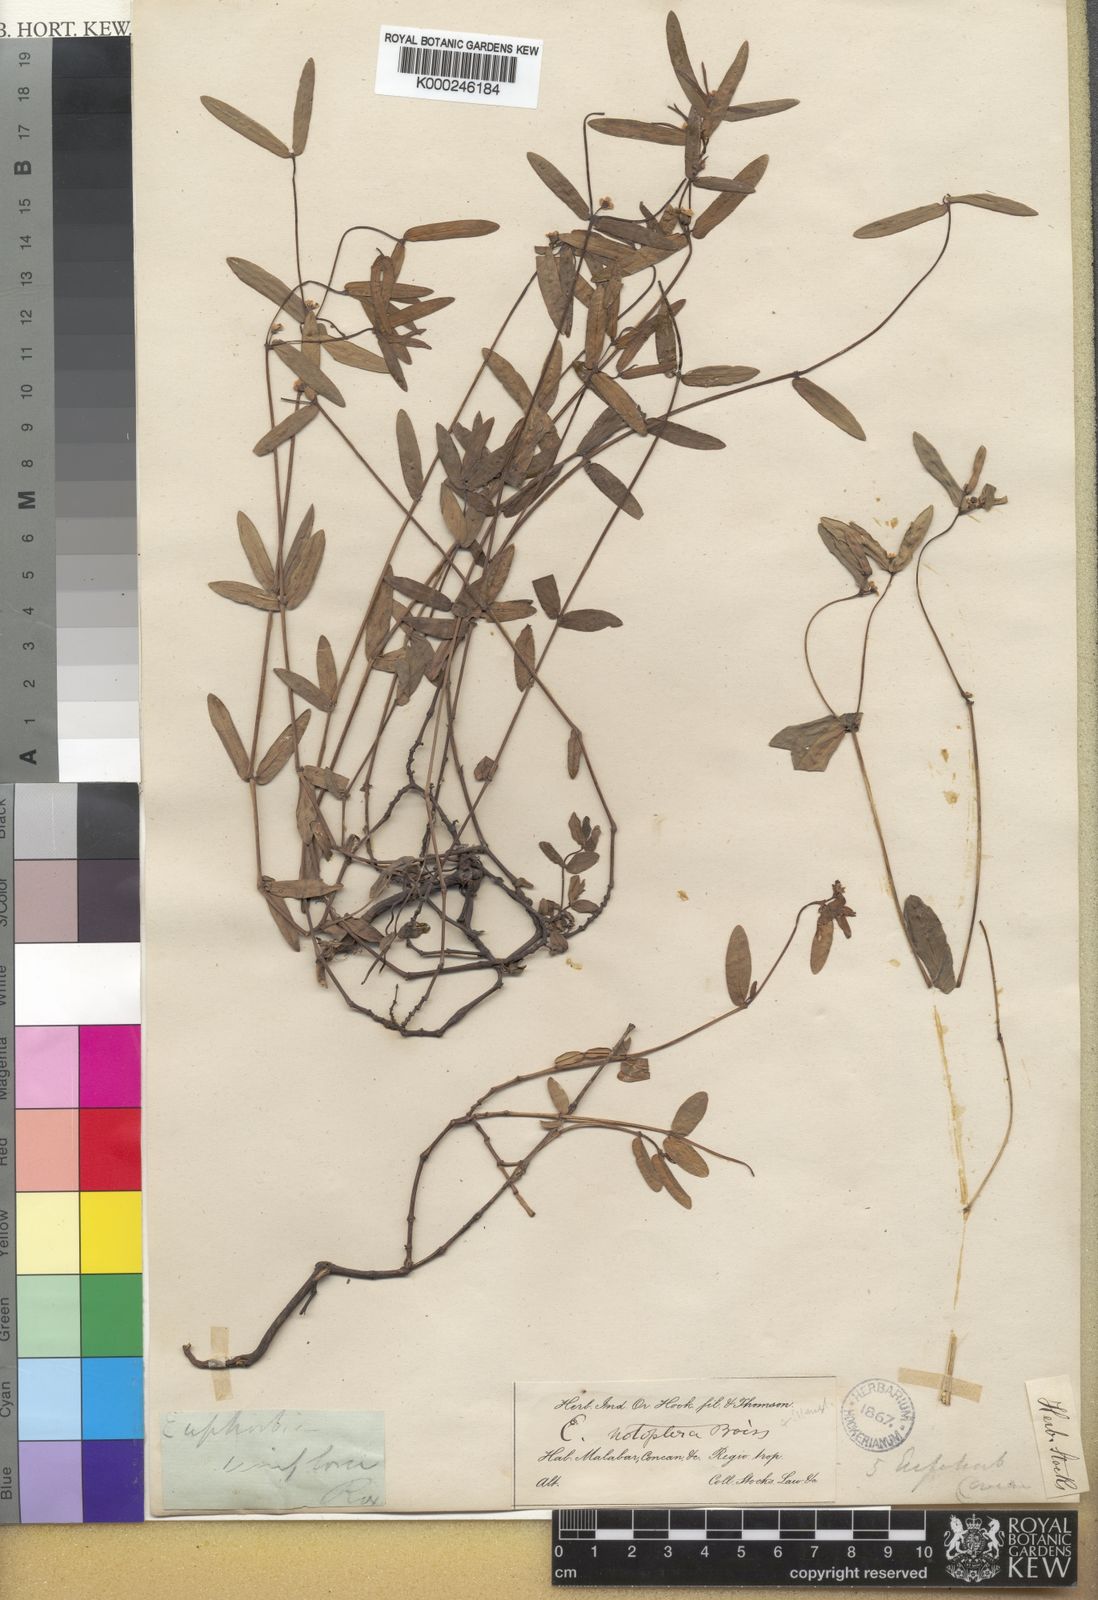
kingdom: Plantae
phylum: Tracheophyta
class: Magnoliopsida
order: Malpighiales
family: Euphorbiaceae
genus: Euphorbia
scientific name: Euphorbia notoptera
